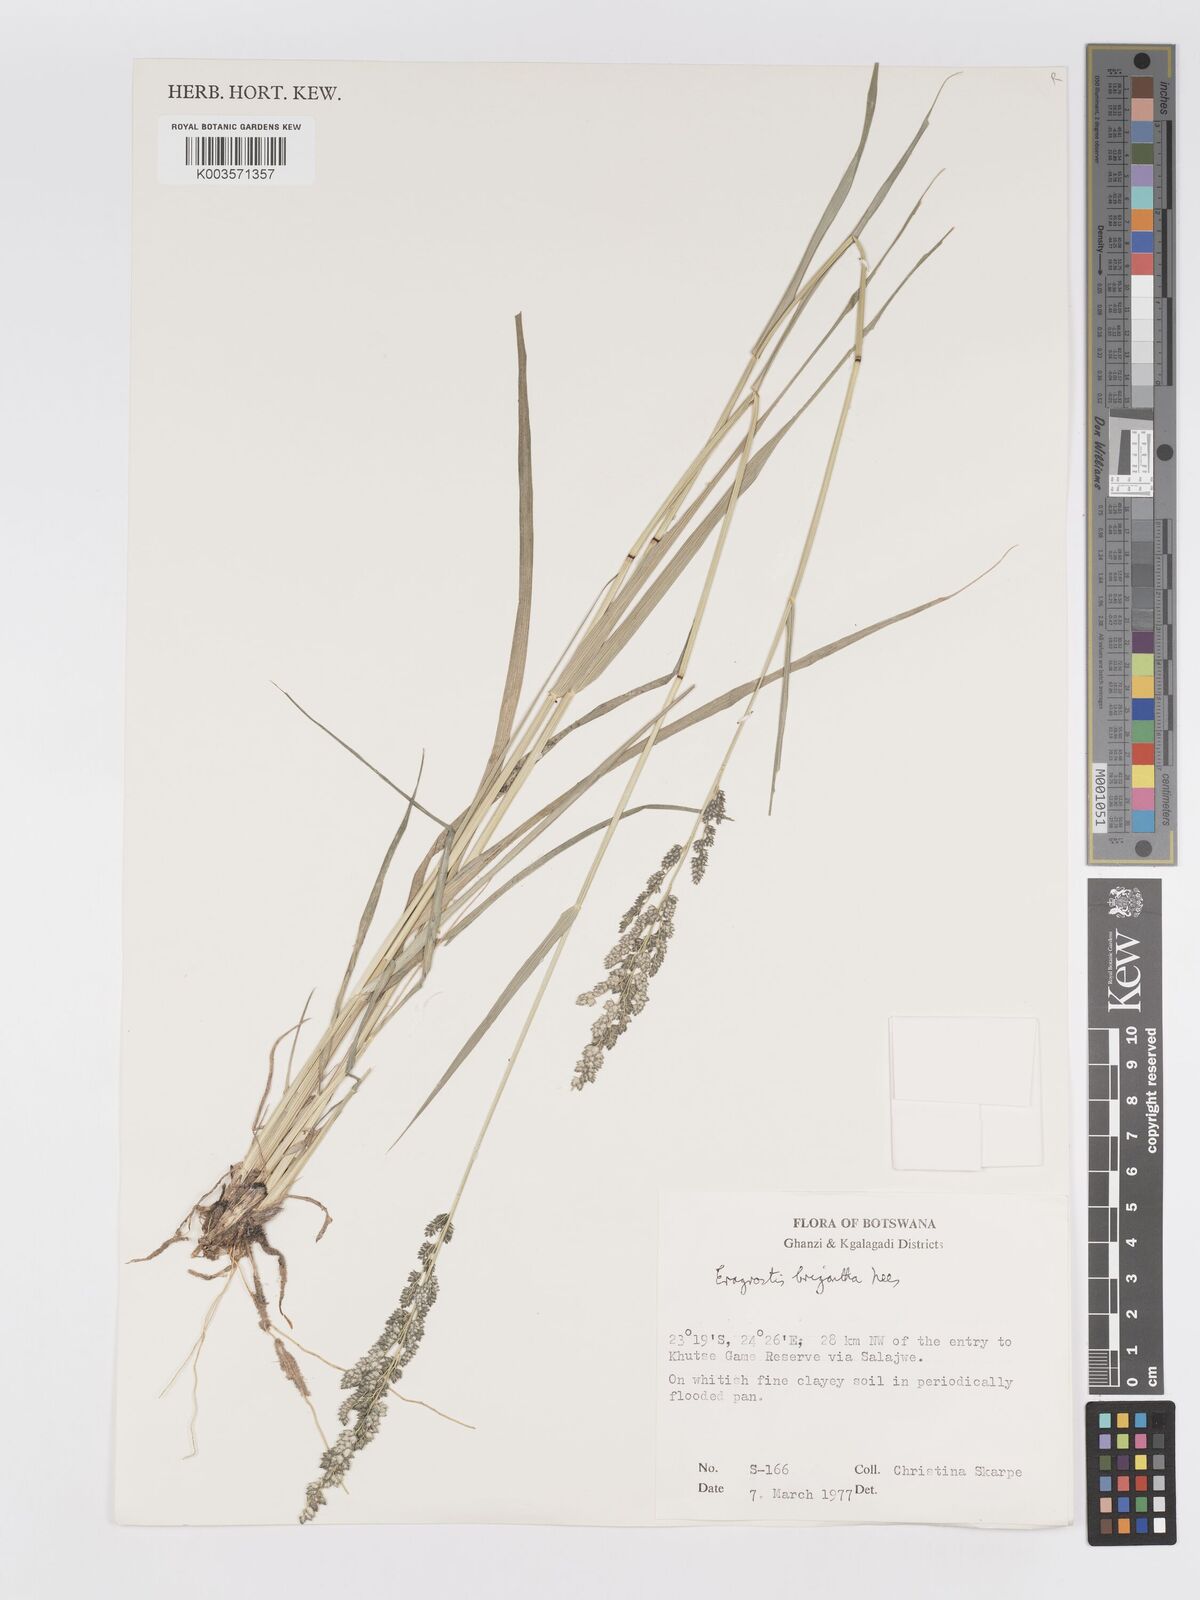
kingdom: Plantae
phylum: Tracheophyta
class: Liliopsida
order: Poales
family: Poaceae
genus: Eragrostis
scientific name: Eragrostis echinochloidea
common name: African lovegrass
